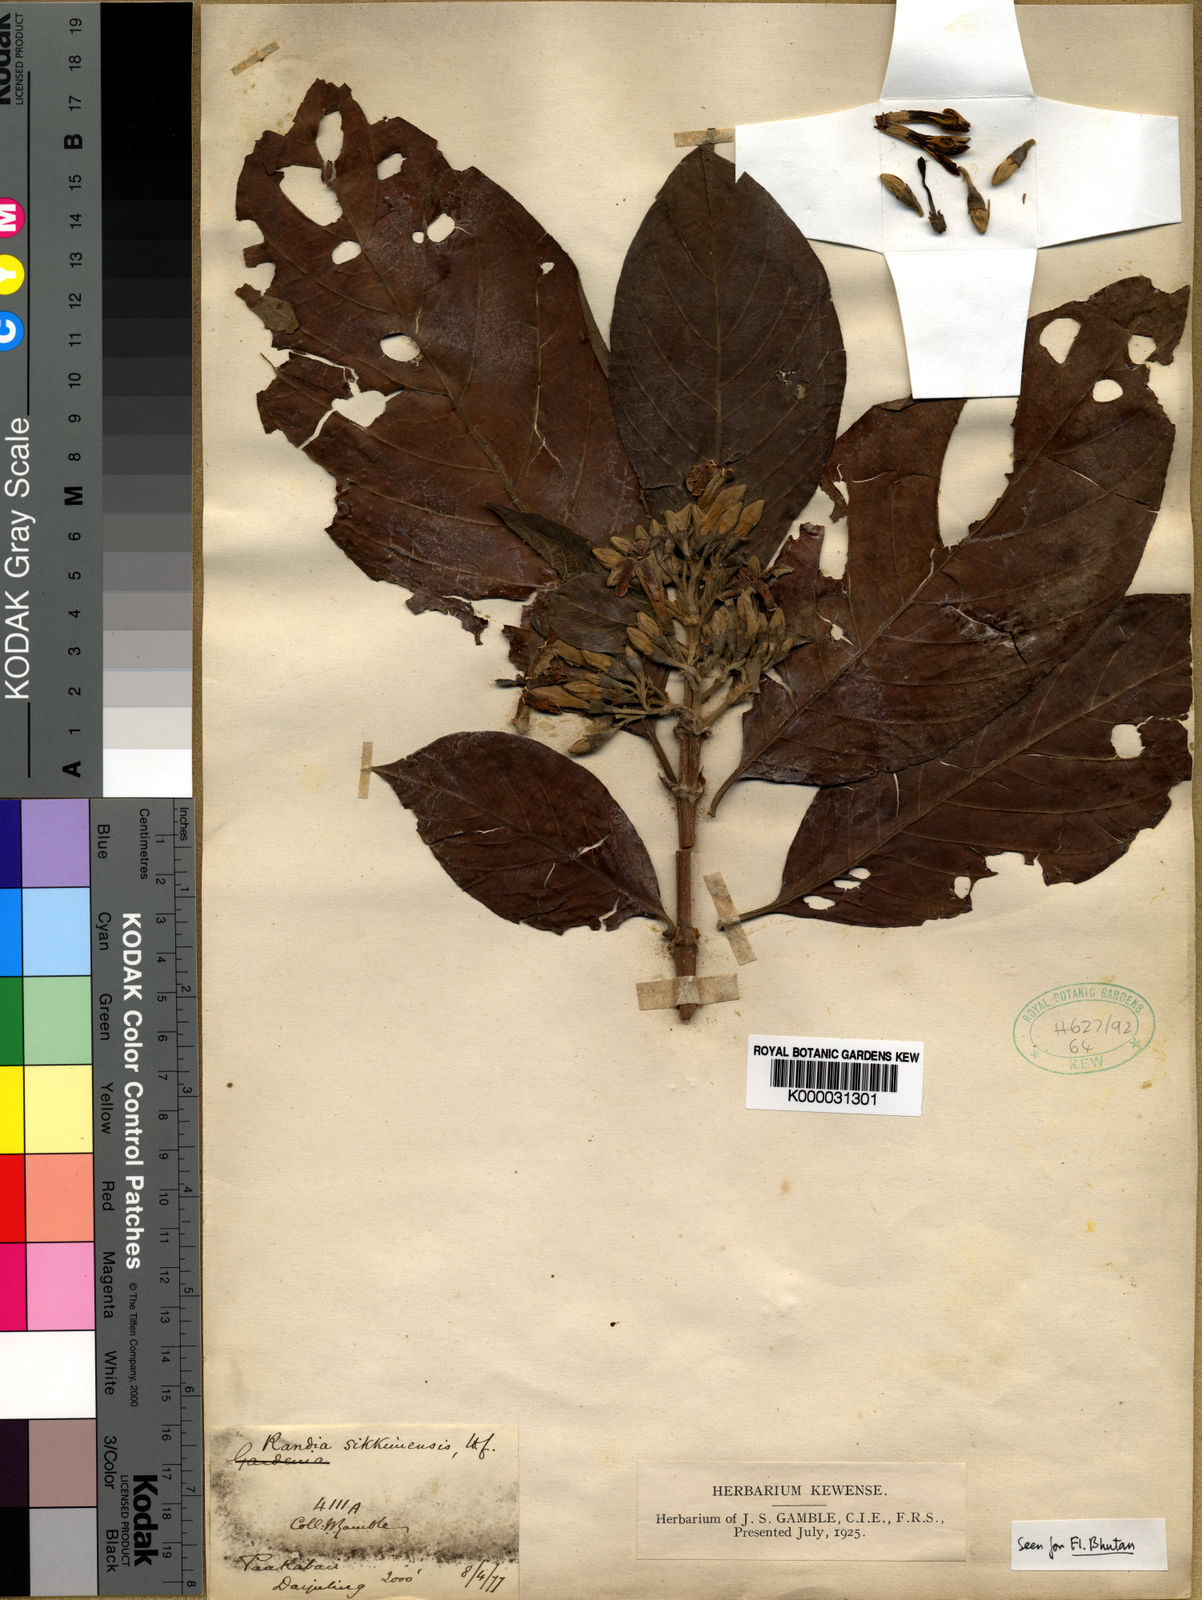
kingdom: Plantae
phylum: Tracheophyta
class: Magnoliopsida
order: Gentianales
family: Rubiaceae
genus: Porterandia
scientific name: Porterandia
